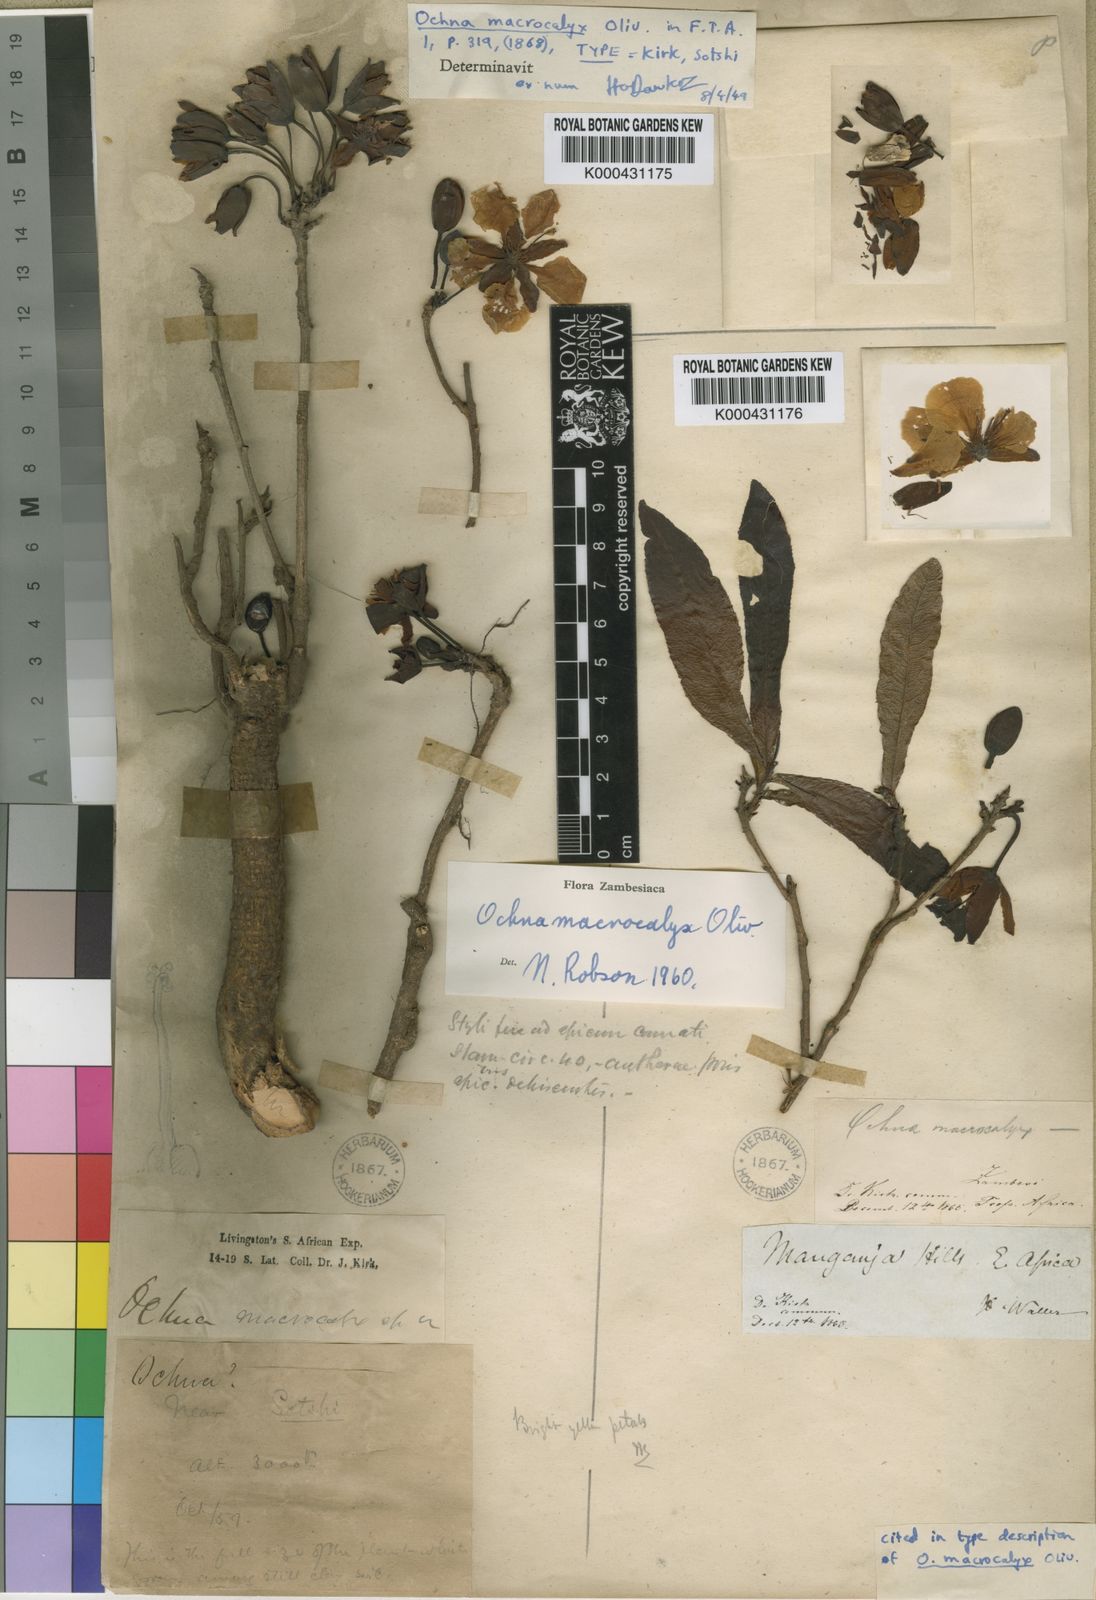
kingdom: Plantae
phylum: Tracheophyta
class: Magnoliopsida
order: Malpighiales
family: Ochnaceae
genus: Ochna
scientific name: Ochna macrocalyx
